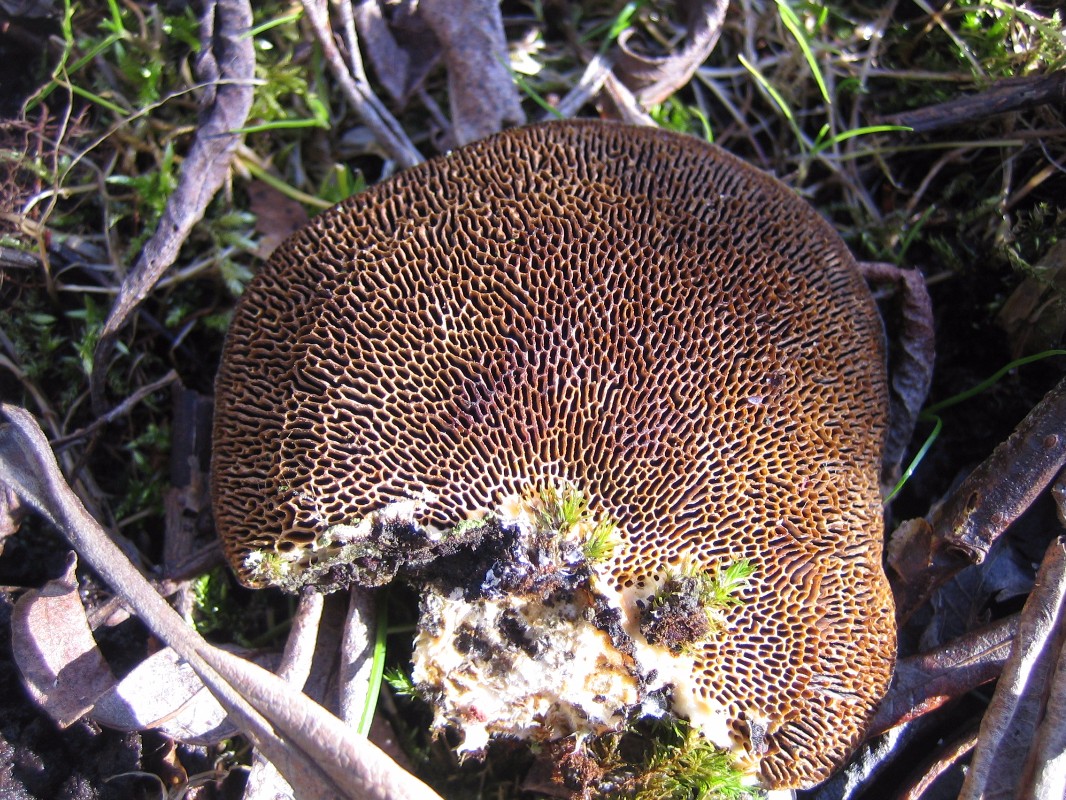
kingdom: Fungi
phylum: Basidiomycota
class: Agaricomycetes
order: Polyporales
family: Polyporaceae
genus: Daedaleopsis
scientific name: Daedaleopsis confragosa
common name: rødmende læderporesvamp
